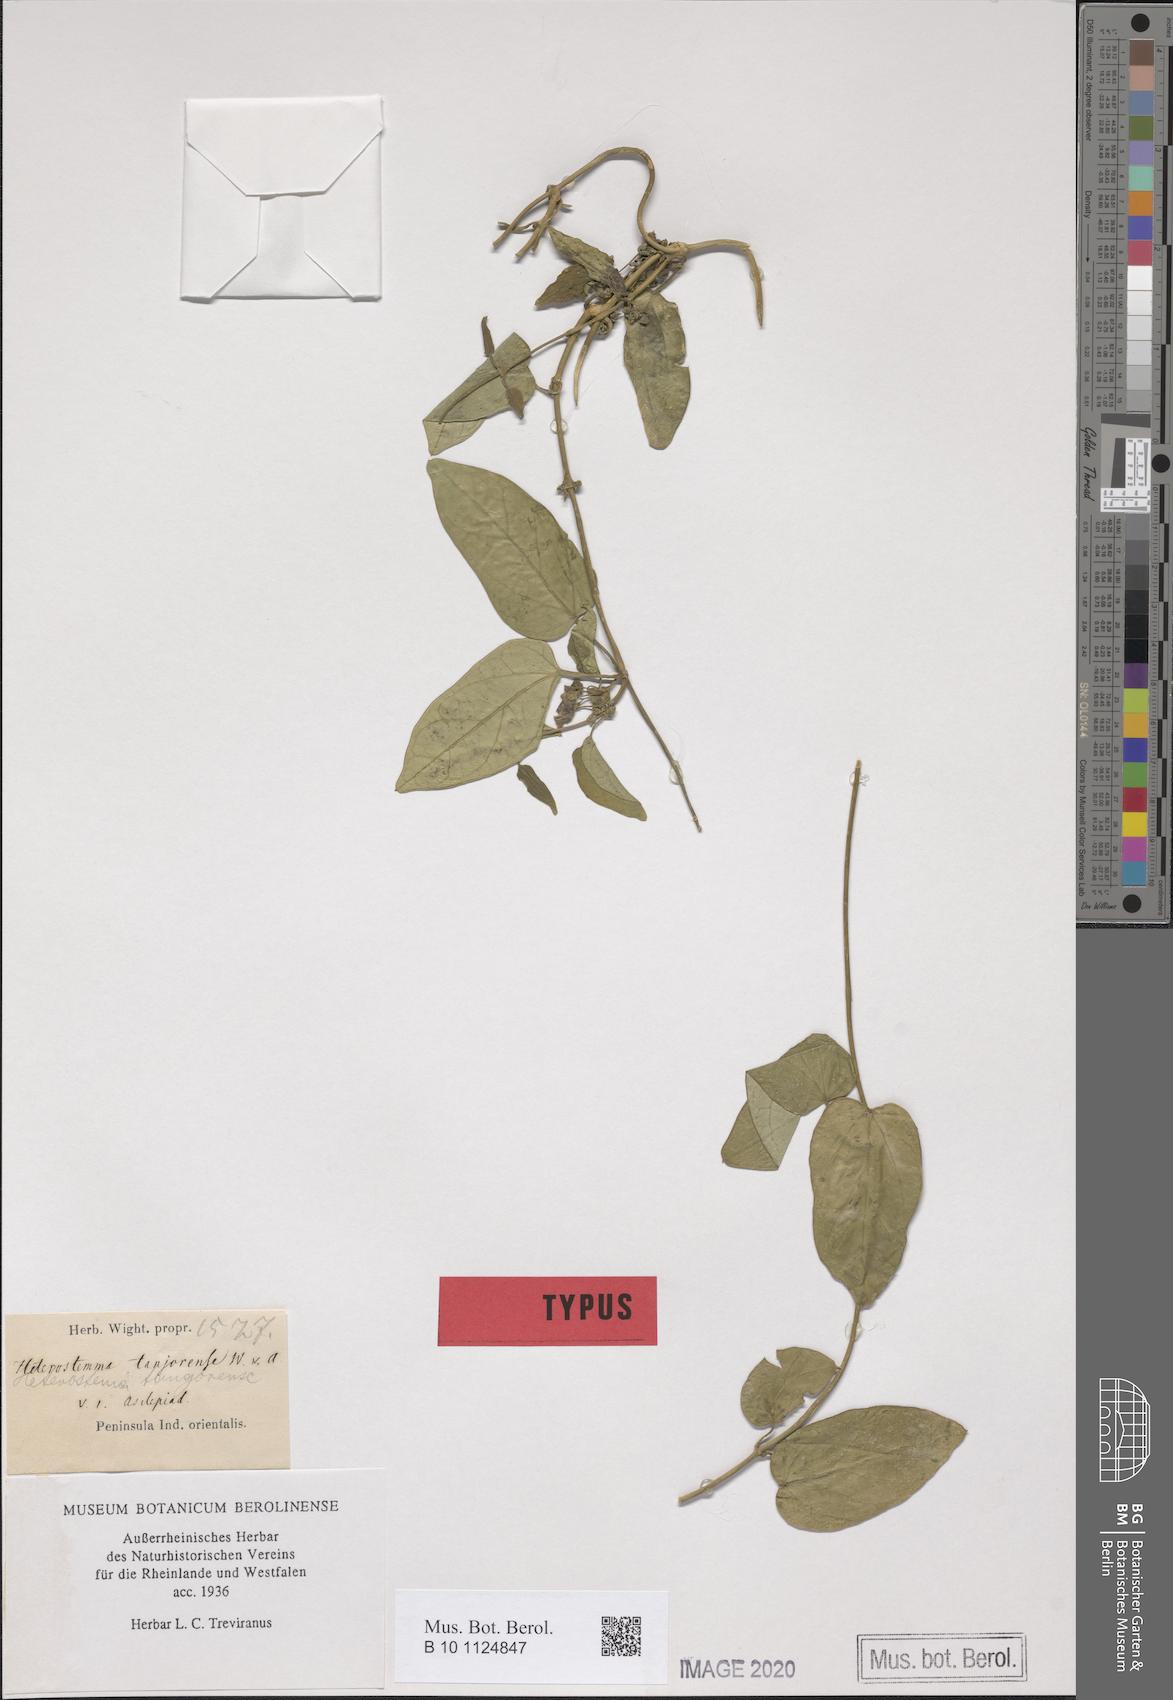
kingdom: Plantae
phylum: Tracheophyta
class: Magnoliopsida
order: Gentianales
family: Apocynaceae
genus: Heterostemma
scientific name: Heterostemma tanjorense
